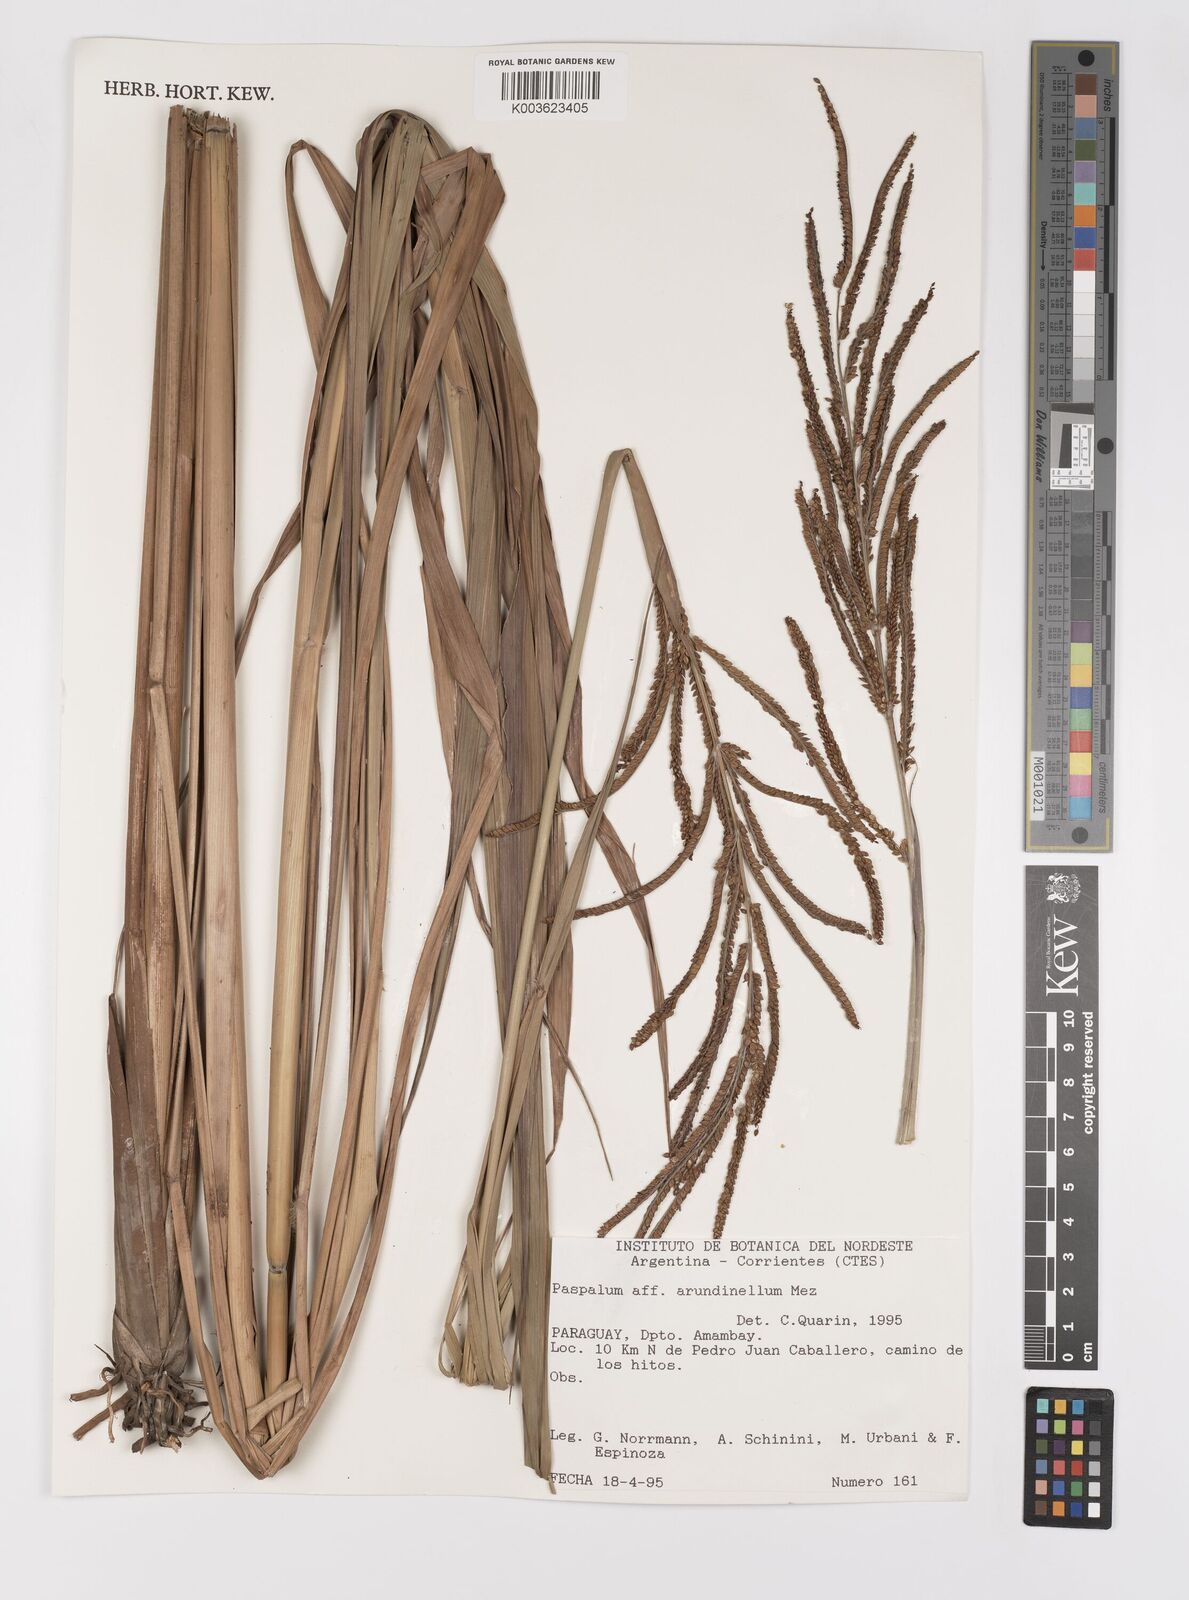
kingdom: Plantae
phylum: Tracheophyta
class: Liliopsida
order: Poales
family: Poaceae
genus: Paspalum
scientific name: Paspalum arundinellum
